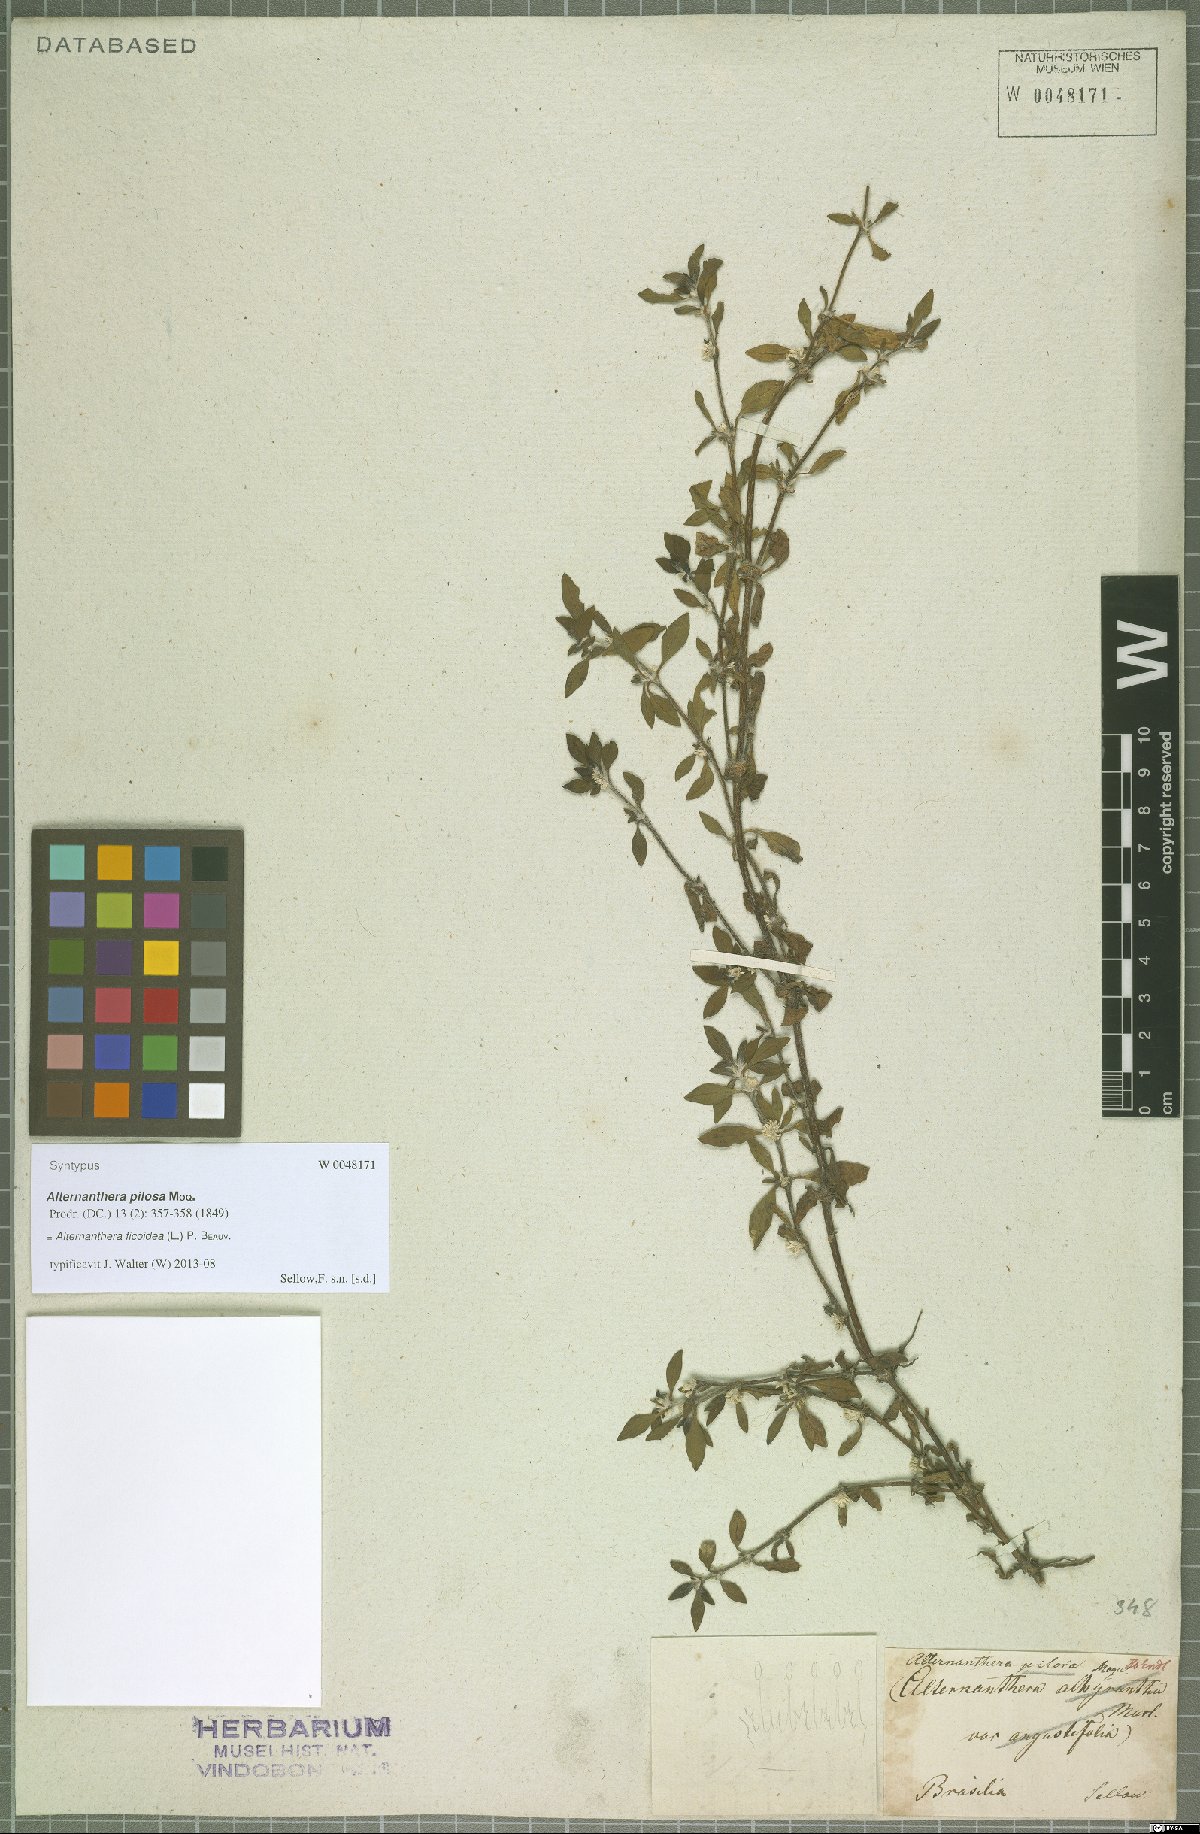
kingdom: Plantae
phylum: Tracheophyta
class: Magnoliopsida
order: Caryophyllales
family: Amaranthaceae
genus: Alternanthera
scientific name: Alternanthera ficoidea
